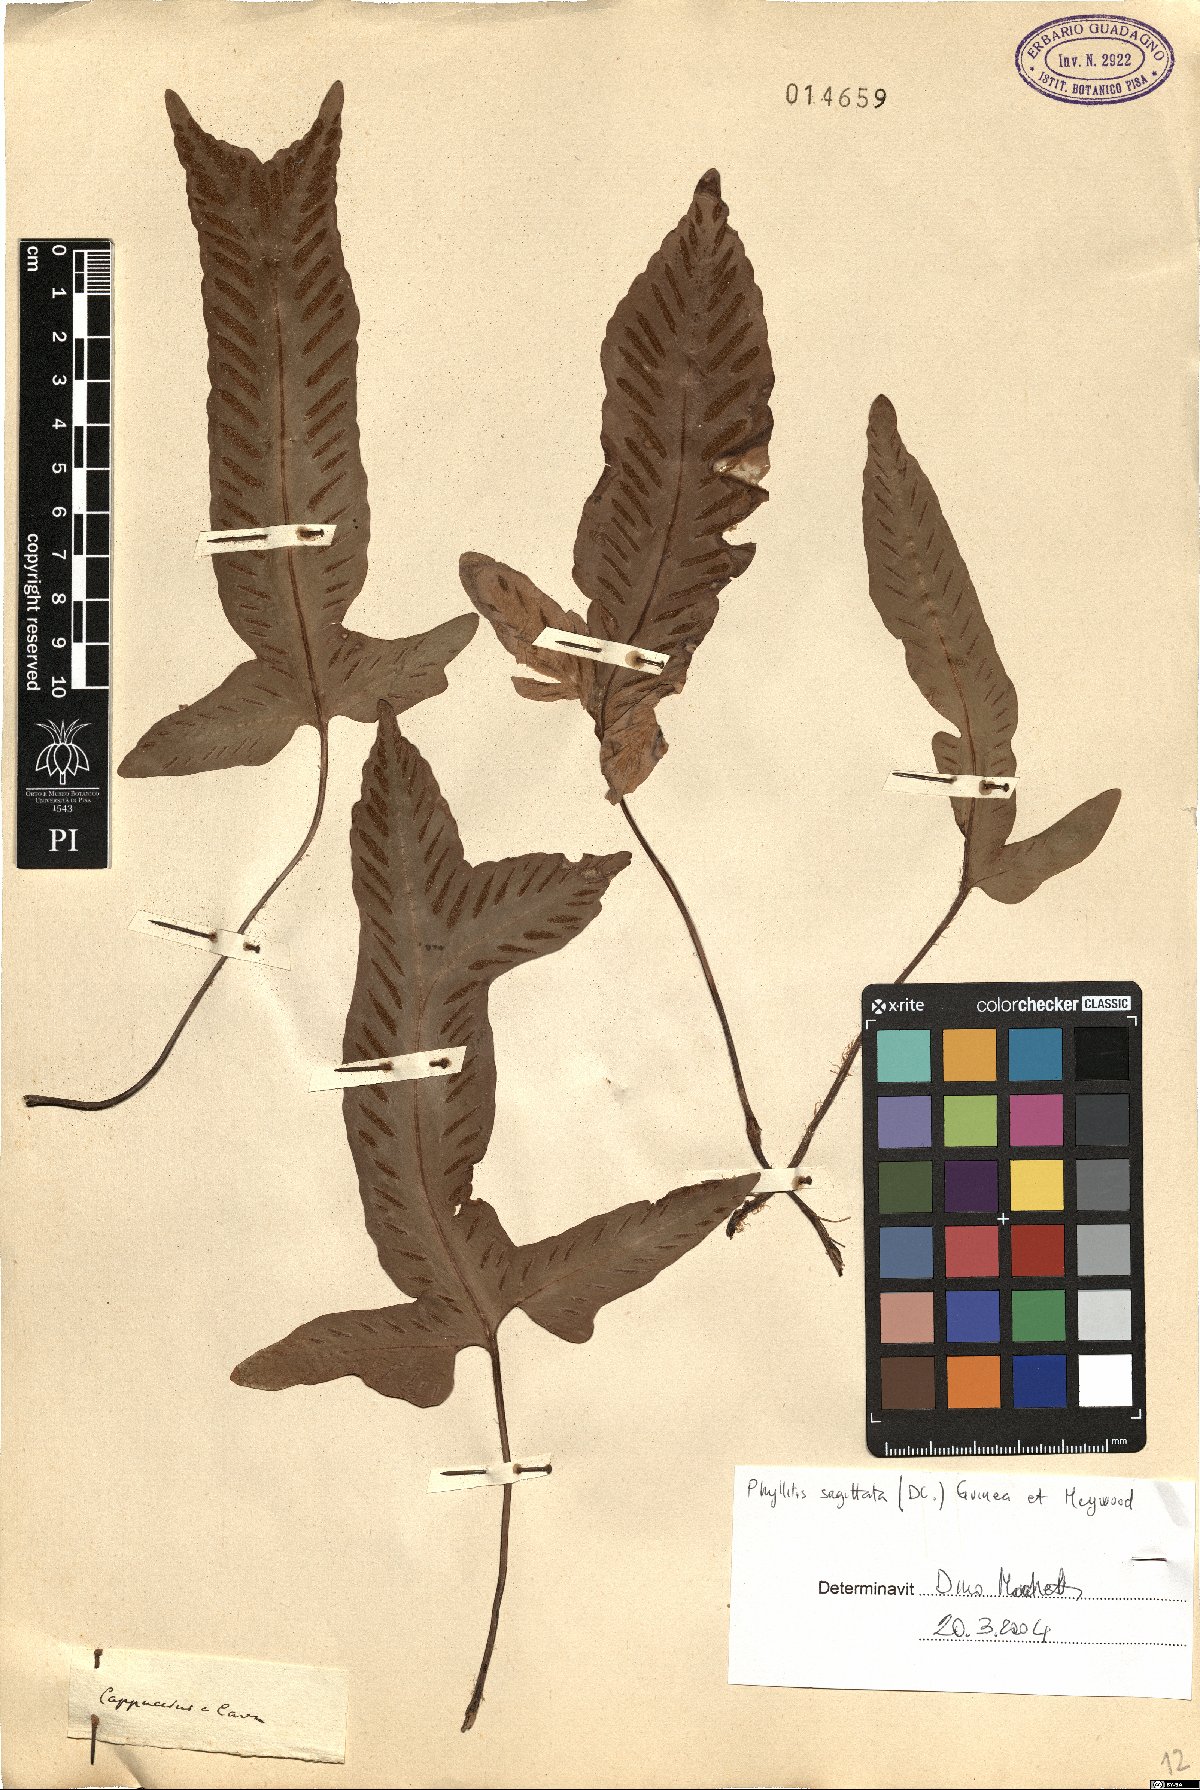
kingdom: Plantae
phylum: Tracheophyta
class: Polypodiopsida
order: Polypodiales
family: Aspleniaceae
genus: Asplenium
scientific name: Asplenium sagittatum
